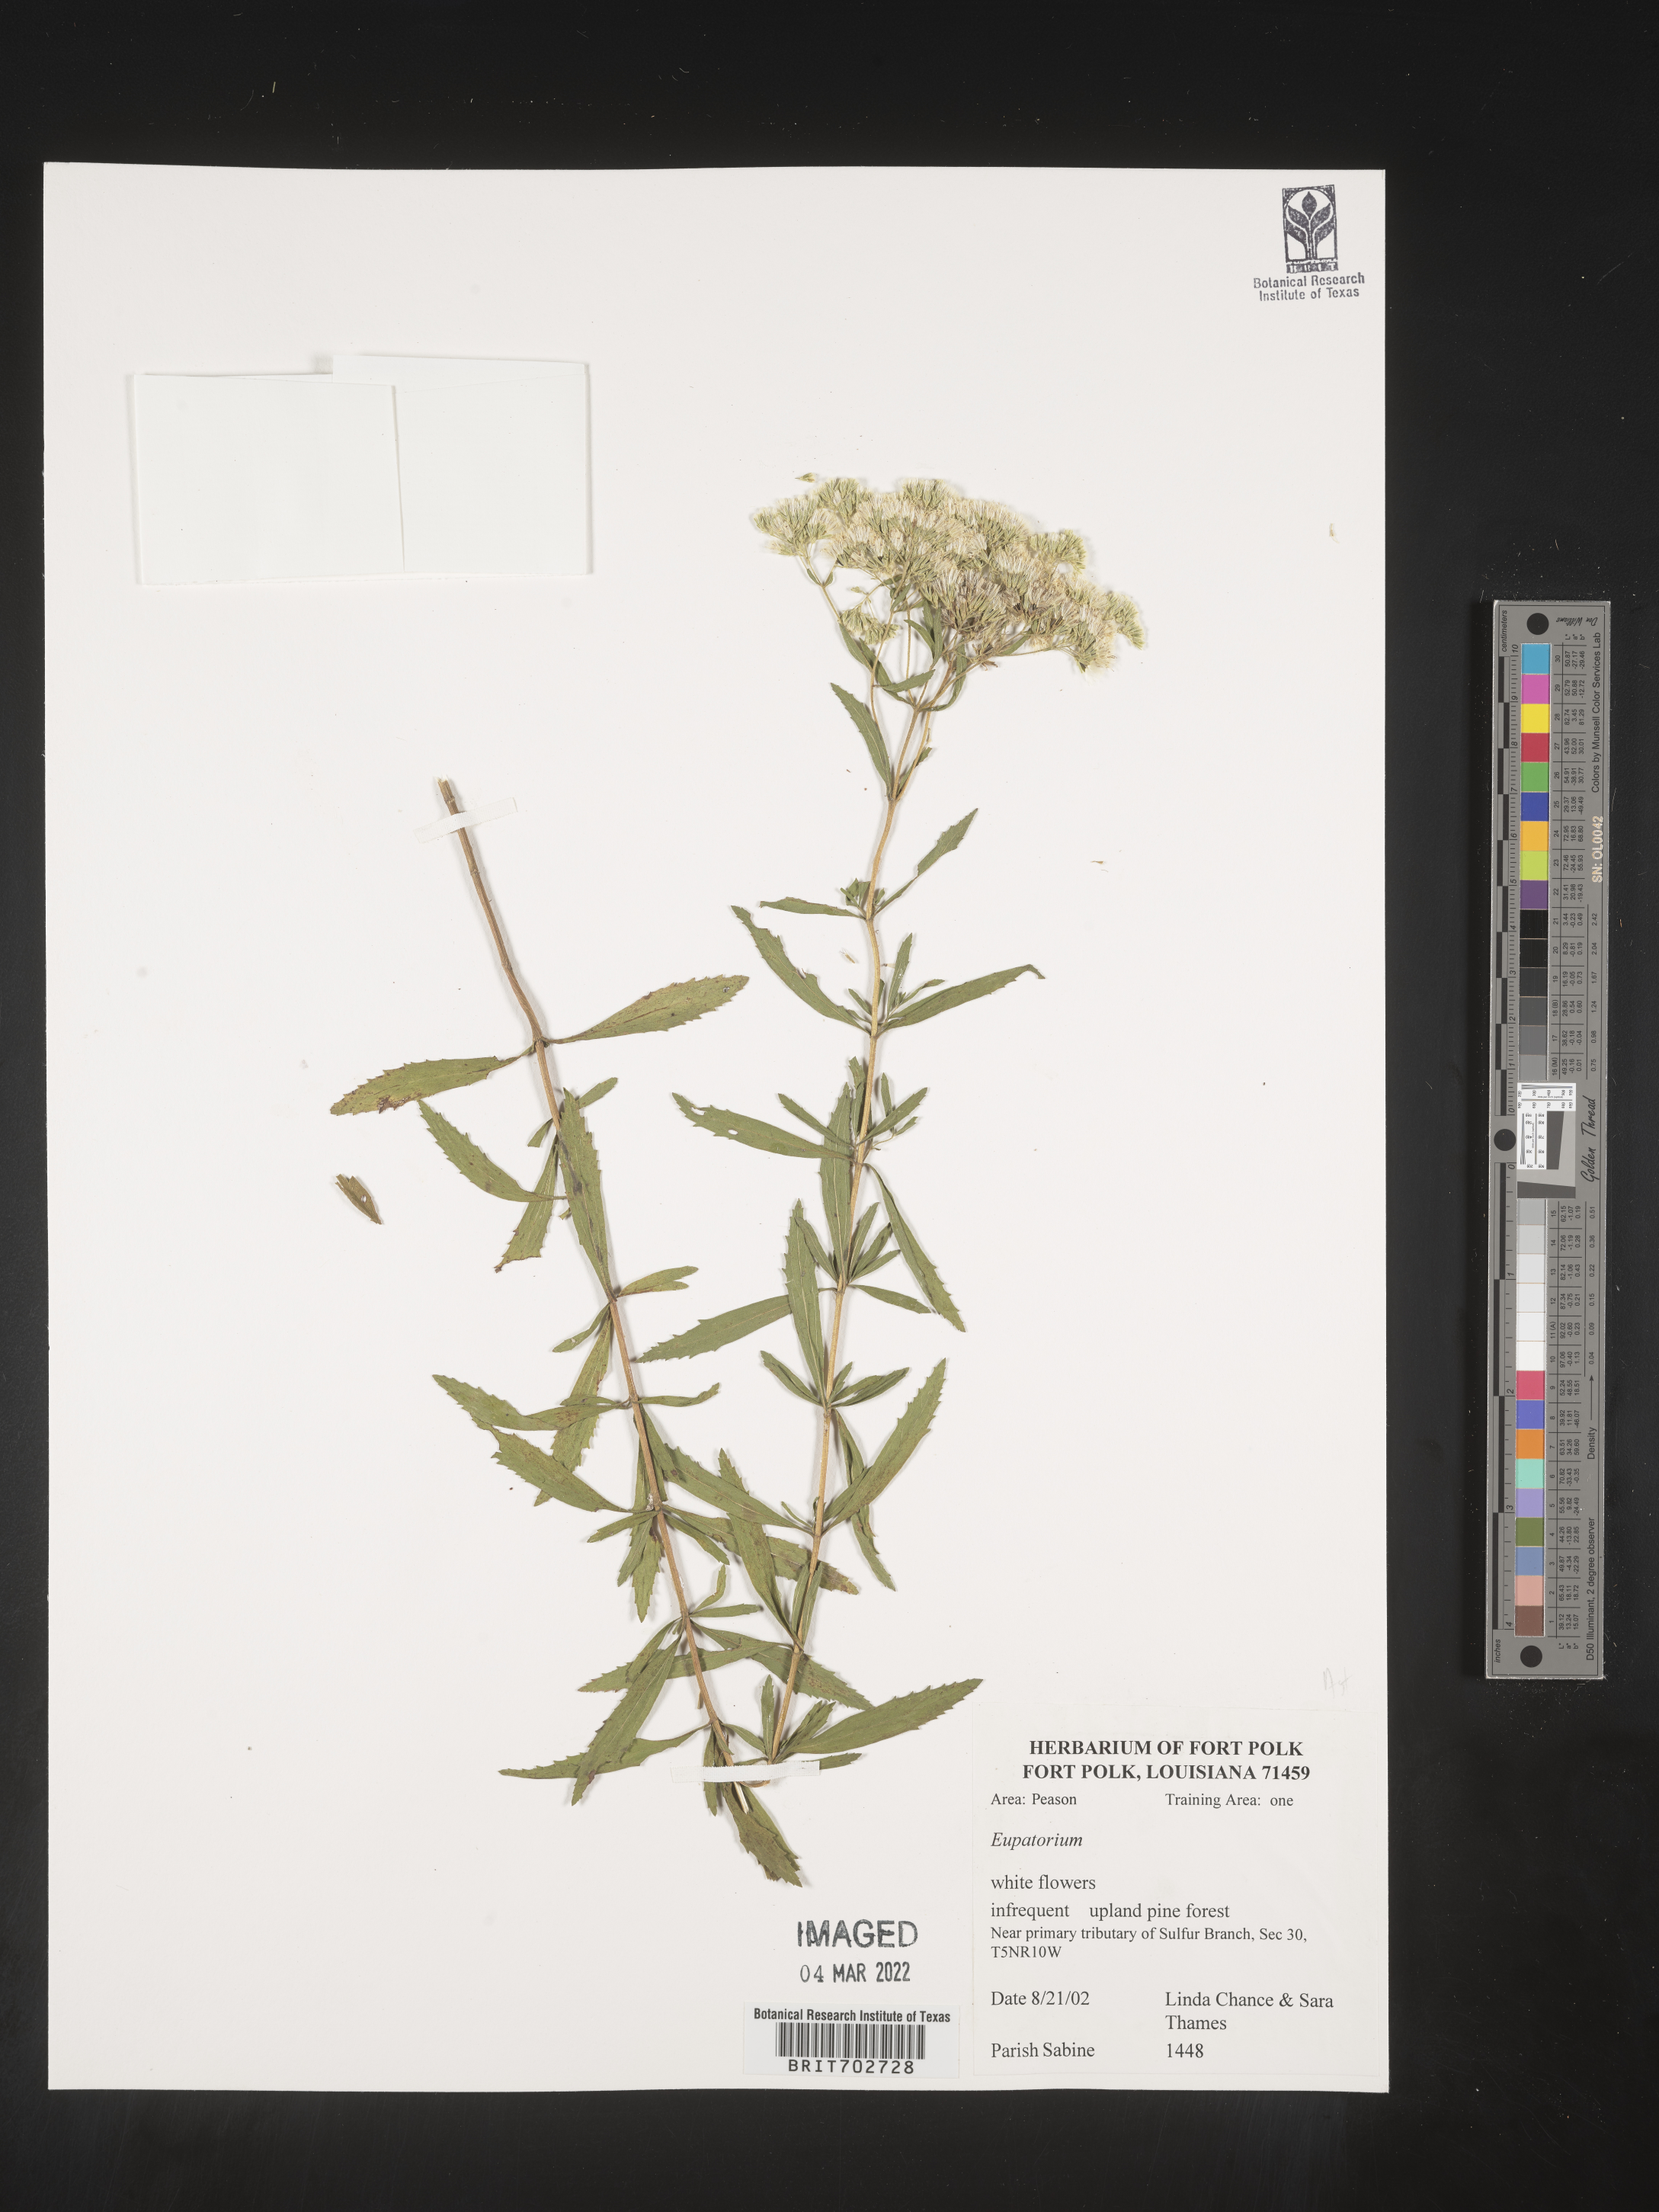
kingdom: Plantae
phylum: Tracheophyta
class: Magnoliopsida
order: Asterales
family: Asteraceae
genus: Eupatorium
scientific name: Eupatorium
